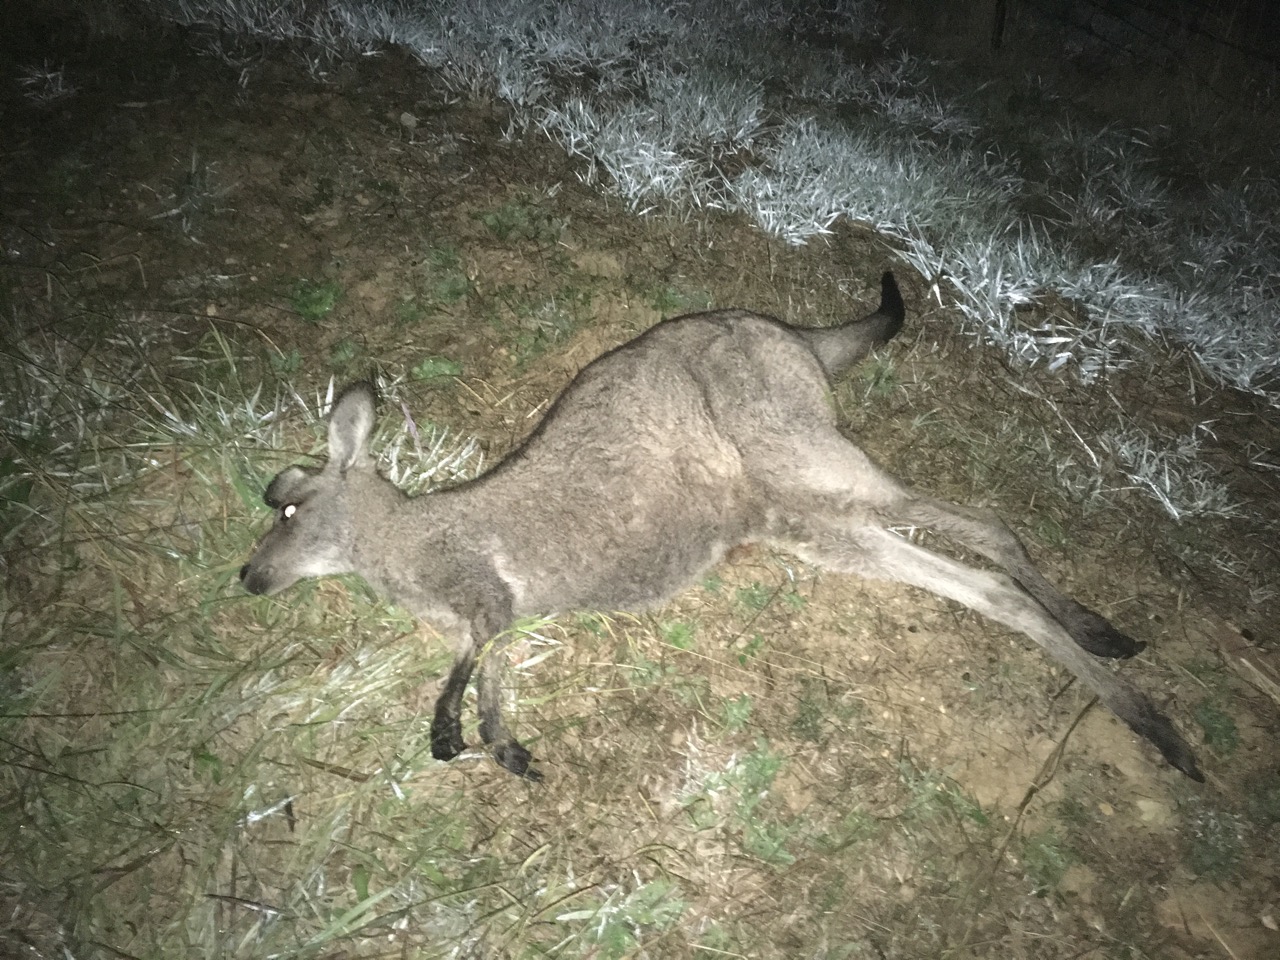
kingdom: Animalia
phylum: Chordata
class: Mammalia
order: Diprotodontia
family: Macropodidae
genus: Macropus
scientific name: Macropus giganteus
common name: Eastern grey kangaroo
